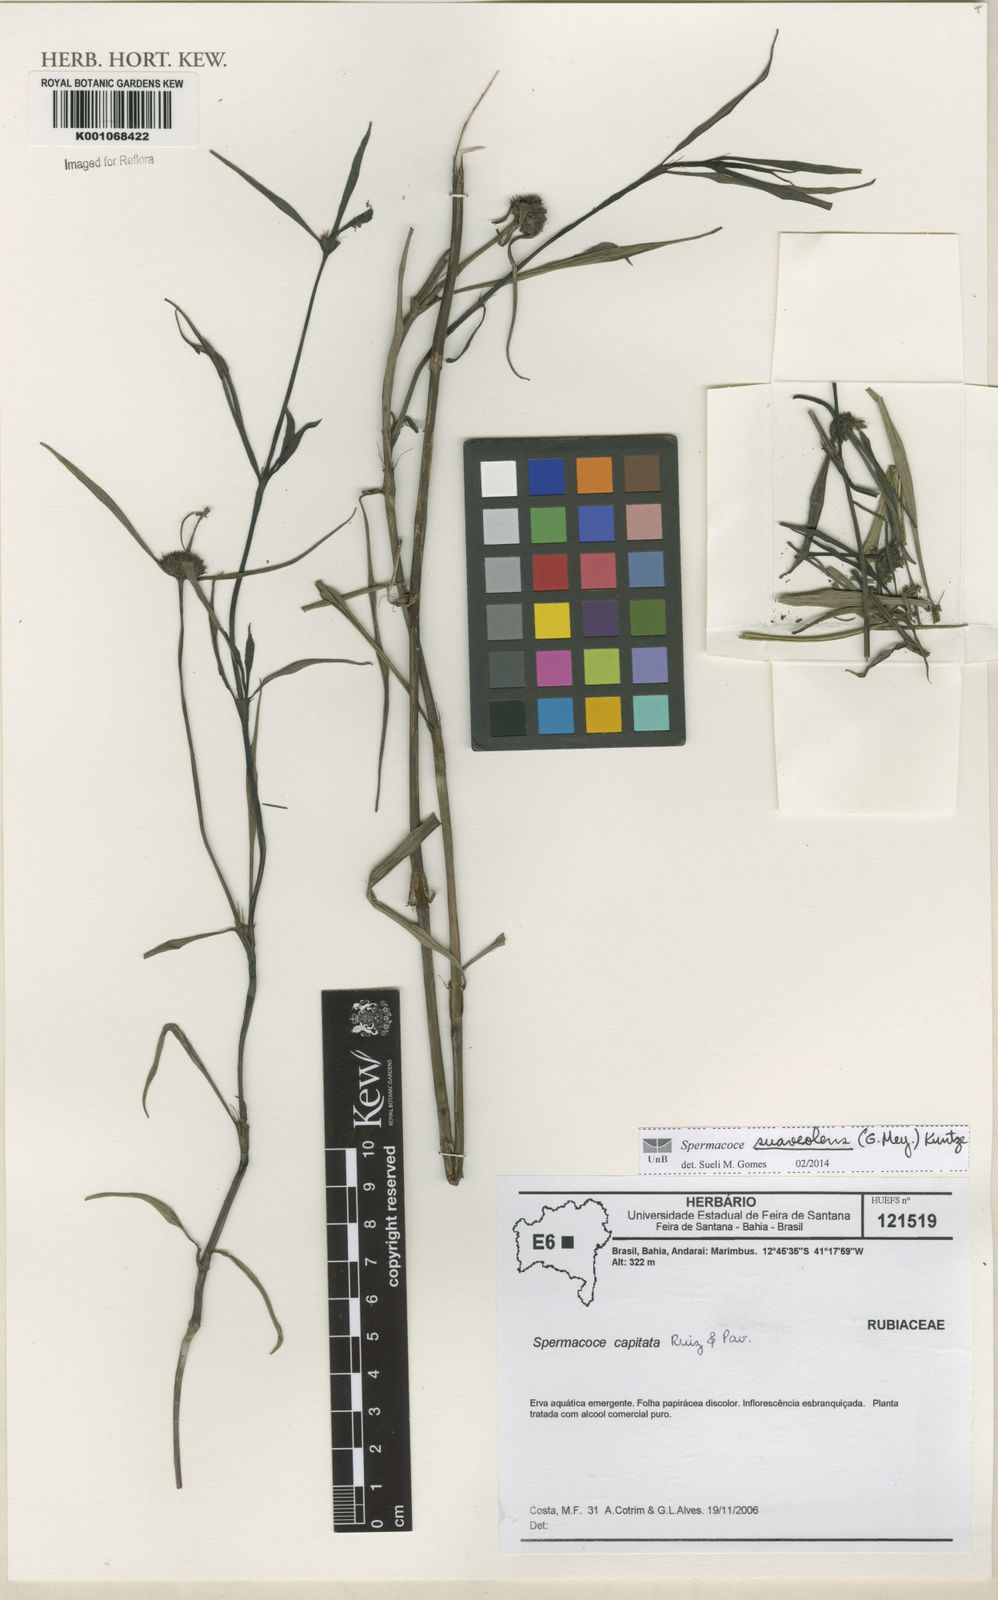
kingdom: Plantae
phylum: Tracheophyta
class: Magnoliopsida
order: Gentianales
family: Rubiaceae
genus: Spermacoce
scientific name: Spermacoce suaveolens
